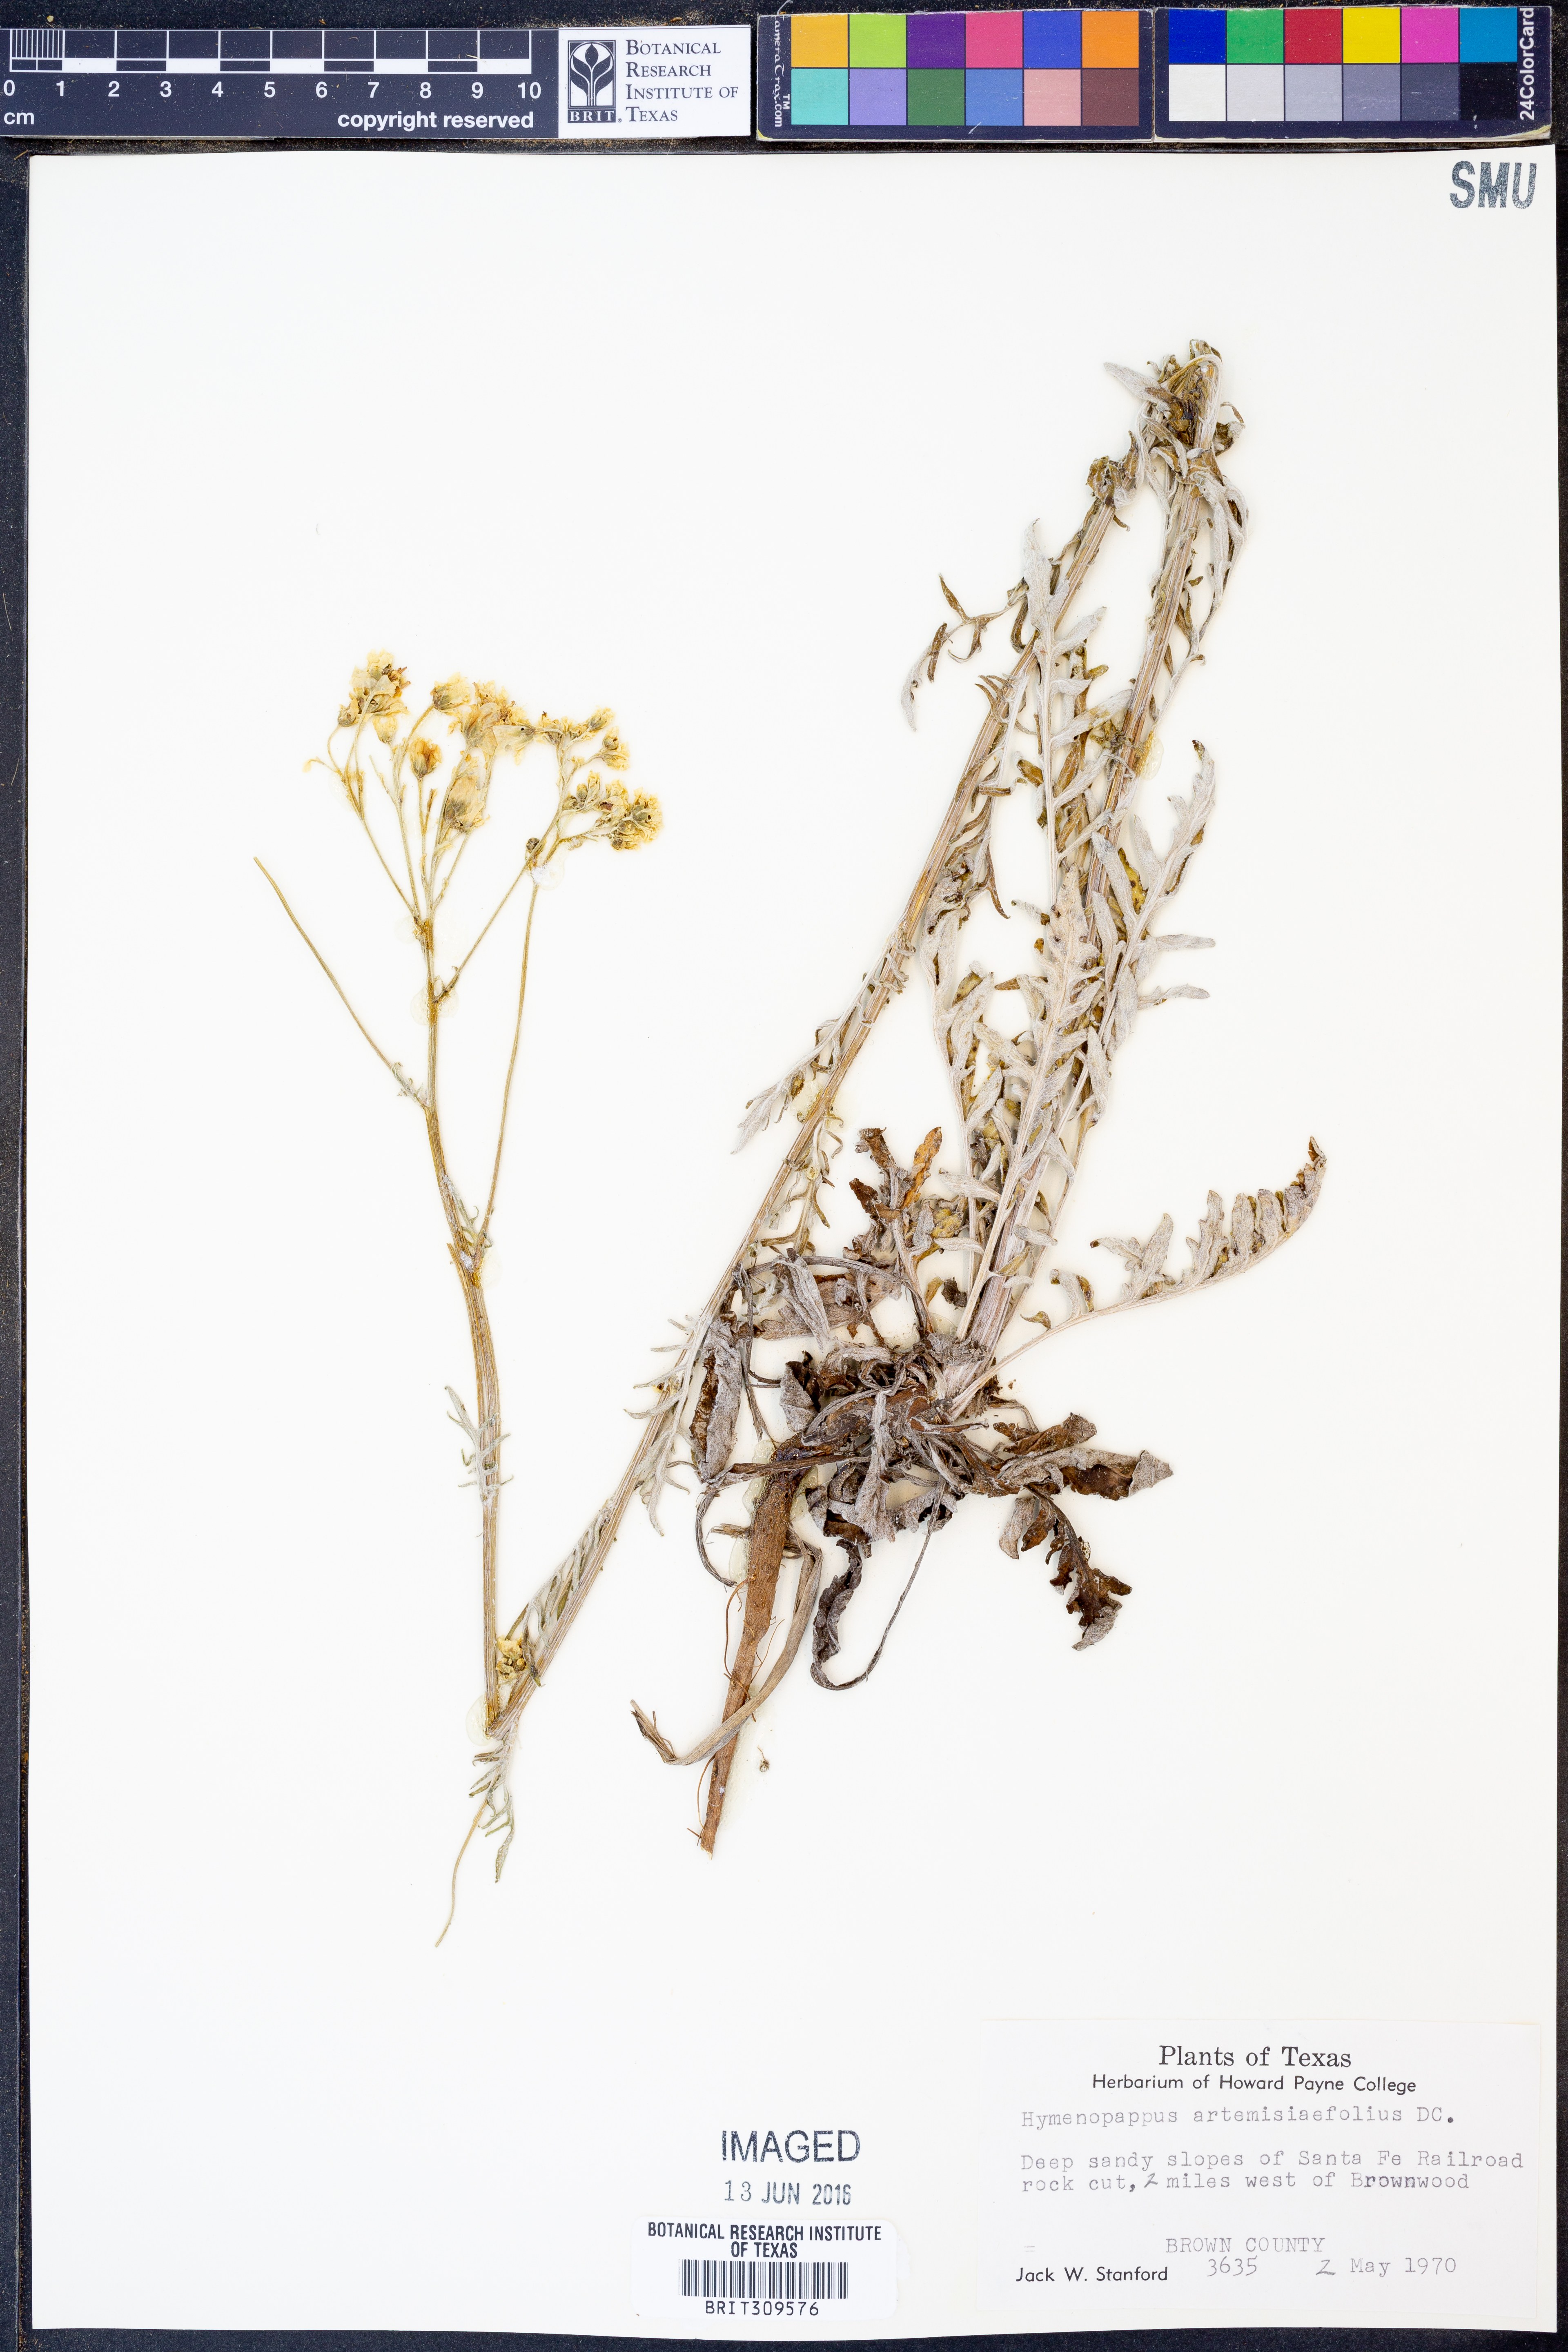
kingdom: Plantae
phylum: Tracheophyta
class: Magnoliopsida
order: Asterales
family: Asteraceae
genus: Hymenopappus
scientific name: Hymenopappus artemisiifolius
